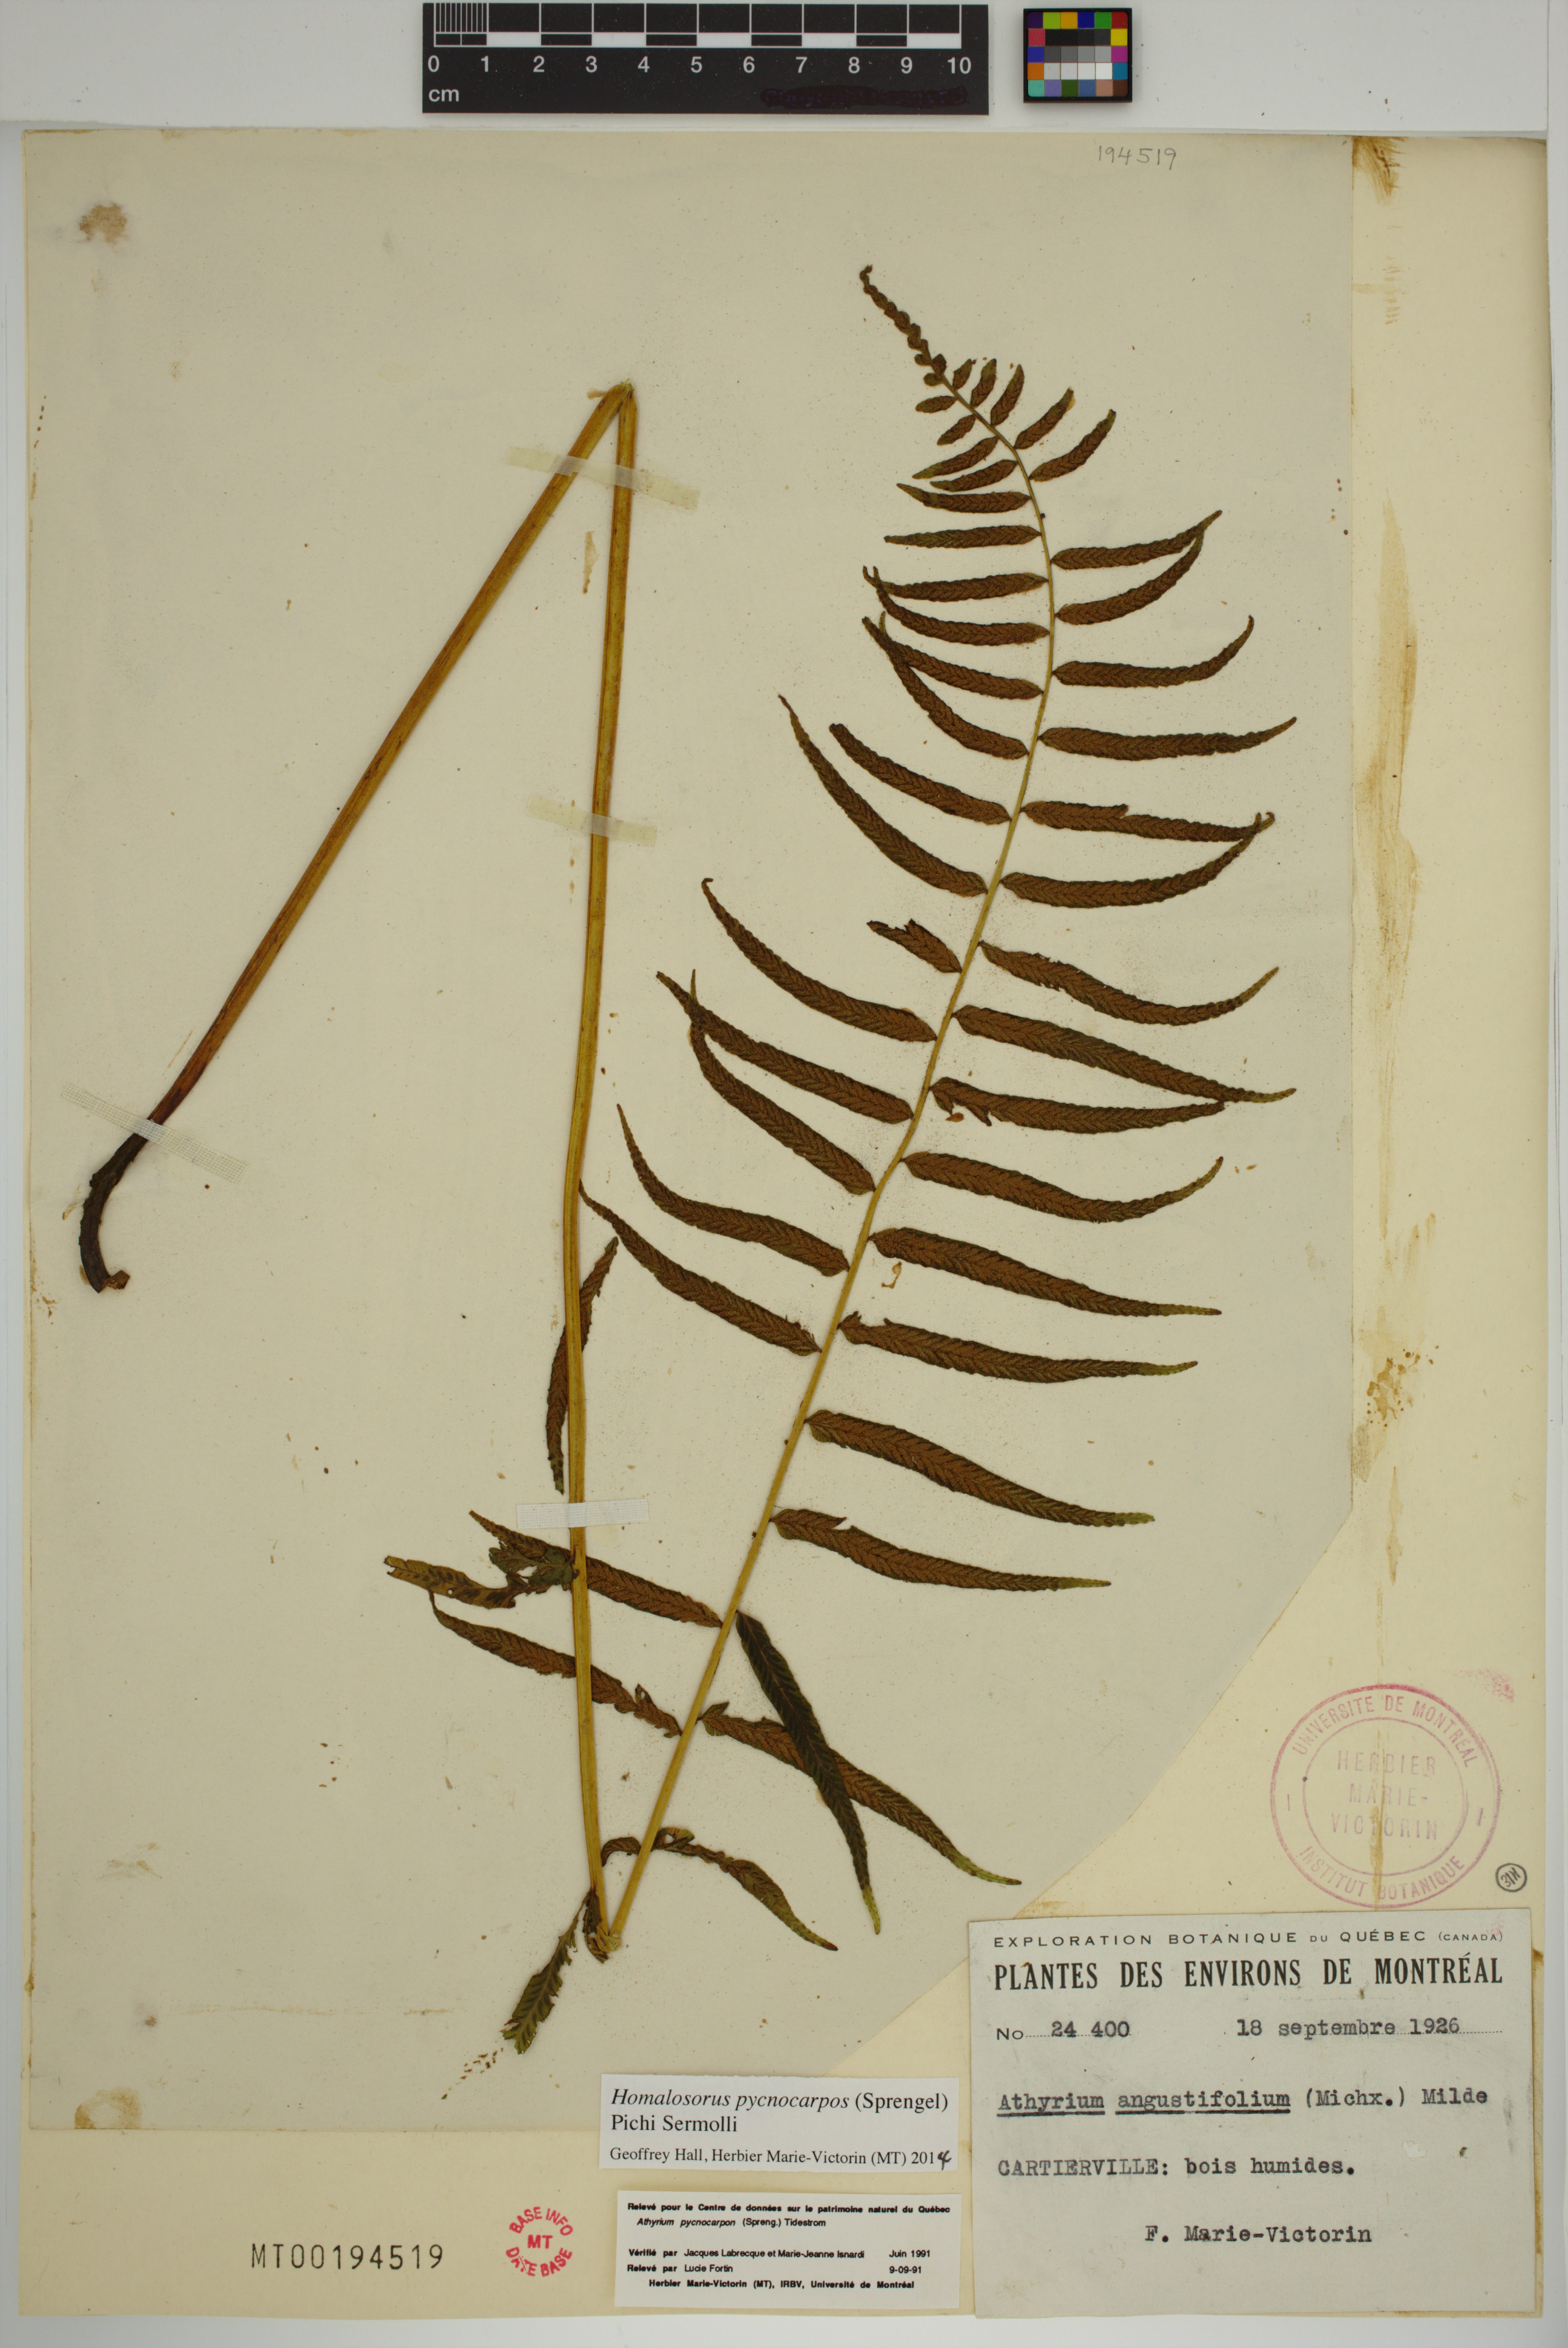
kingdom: Plantae
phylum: Tracheophyta
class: Polypodiopsida
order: Polypodiales
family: Diplaziopsidaceae
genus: Homalosorus
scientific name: Homalosorus pycnocarpos
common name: Glade fern
